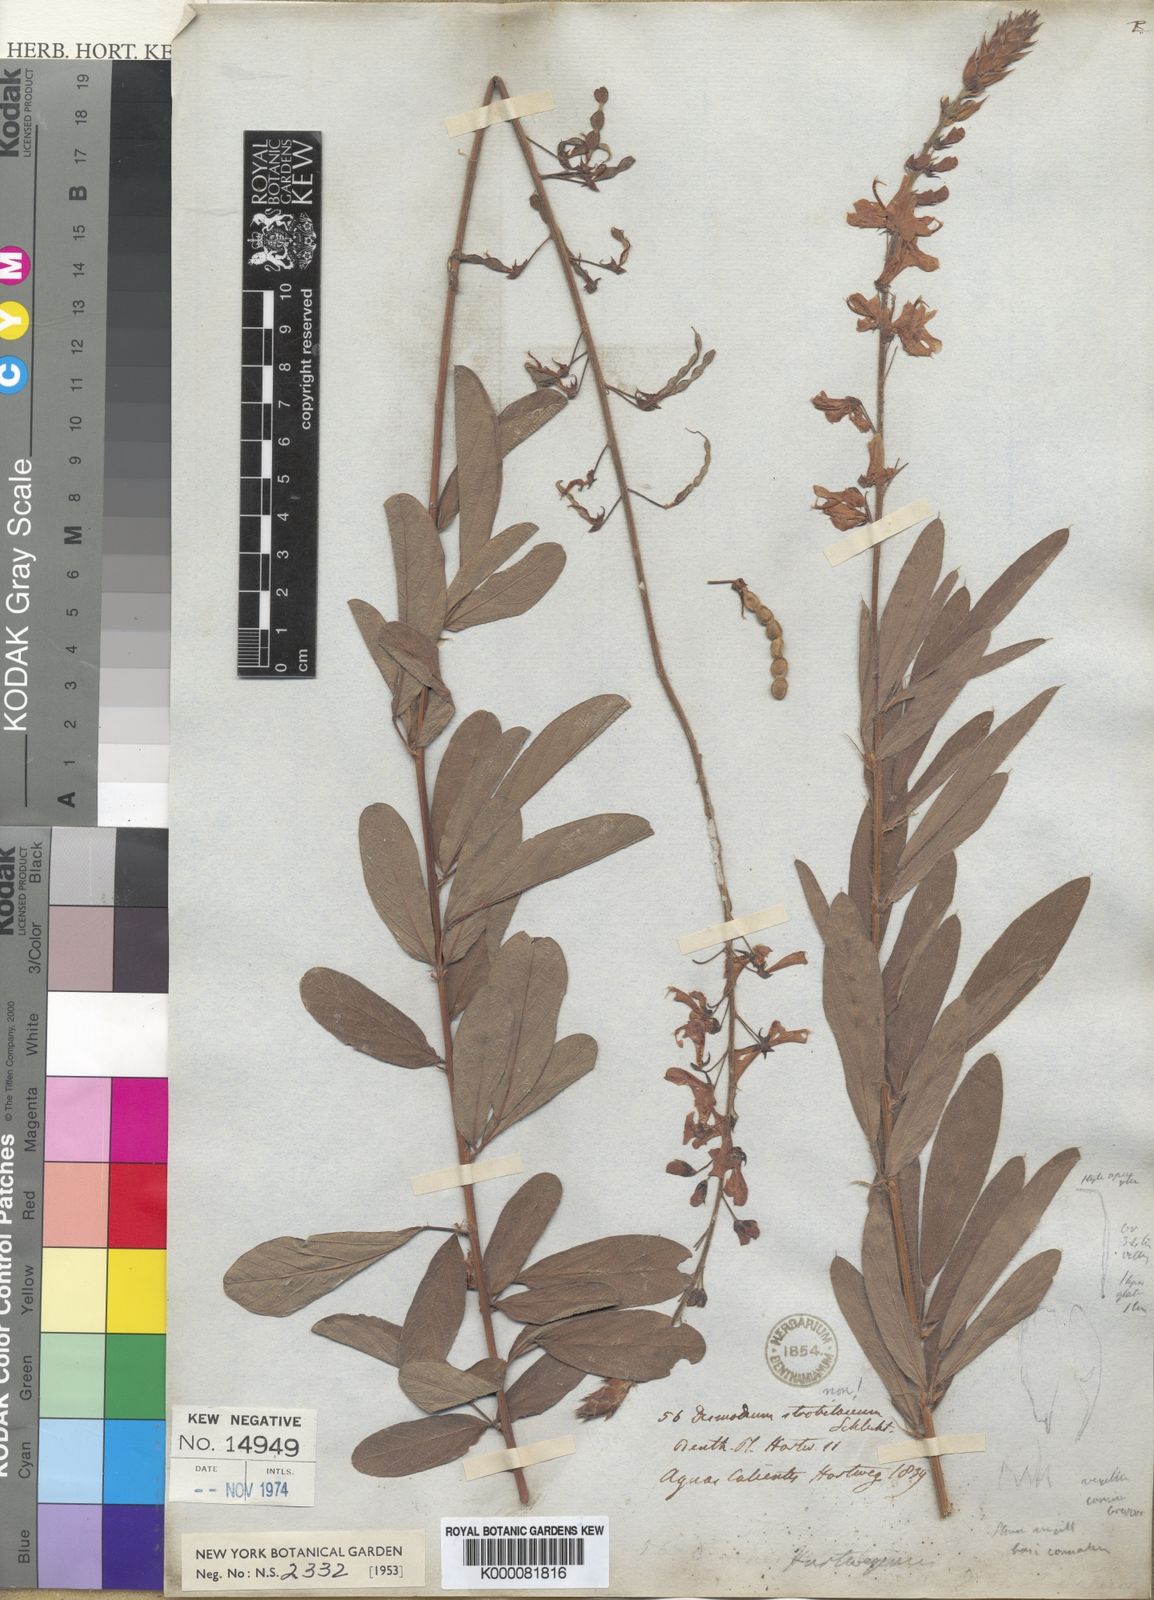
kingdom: Plantae
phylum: Tracheophyta
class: Magnoliopsida
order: Fabales
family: Fabaceae
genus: Desmodium
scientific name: Desmodium hartwegianum
